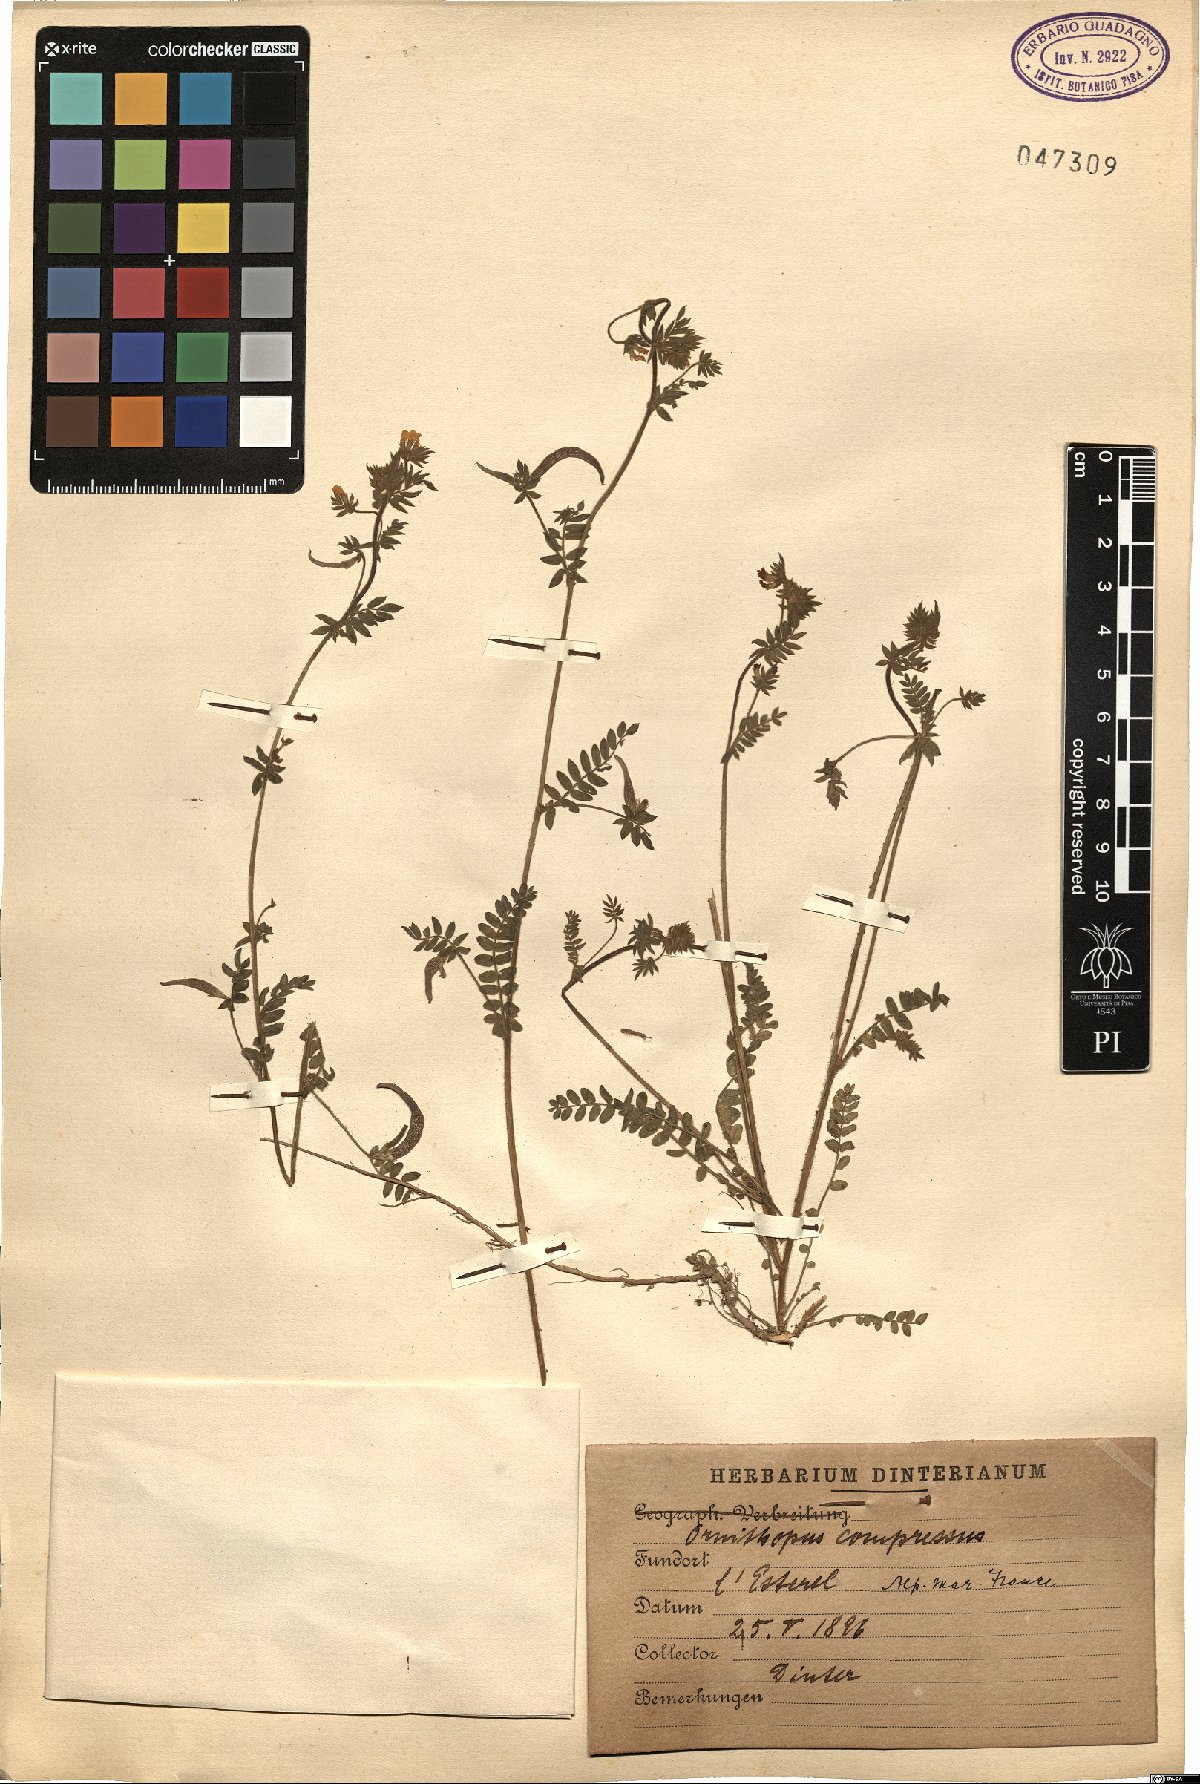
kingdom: Plantae
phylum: Tracheophyta
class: Magnoliopsida
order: Fabales
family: Fabaceae
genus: Ornithopus
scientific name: Ornithopus compressus
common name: Yellow serradella
